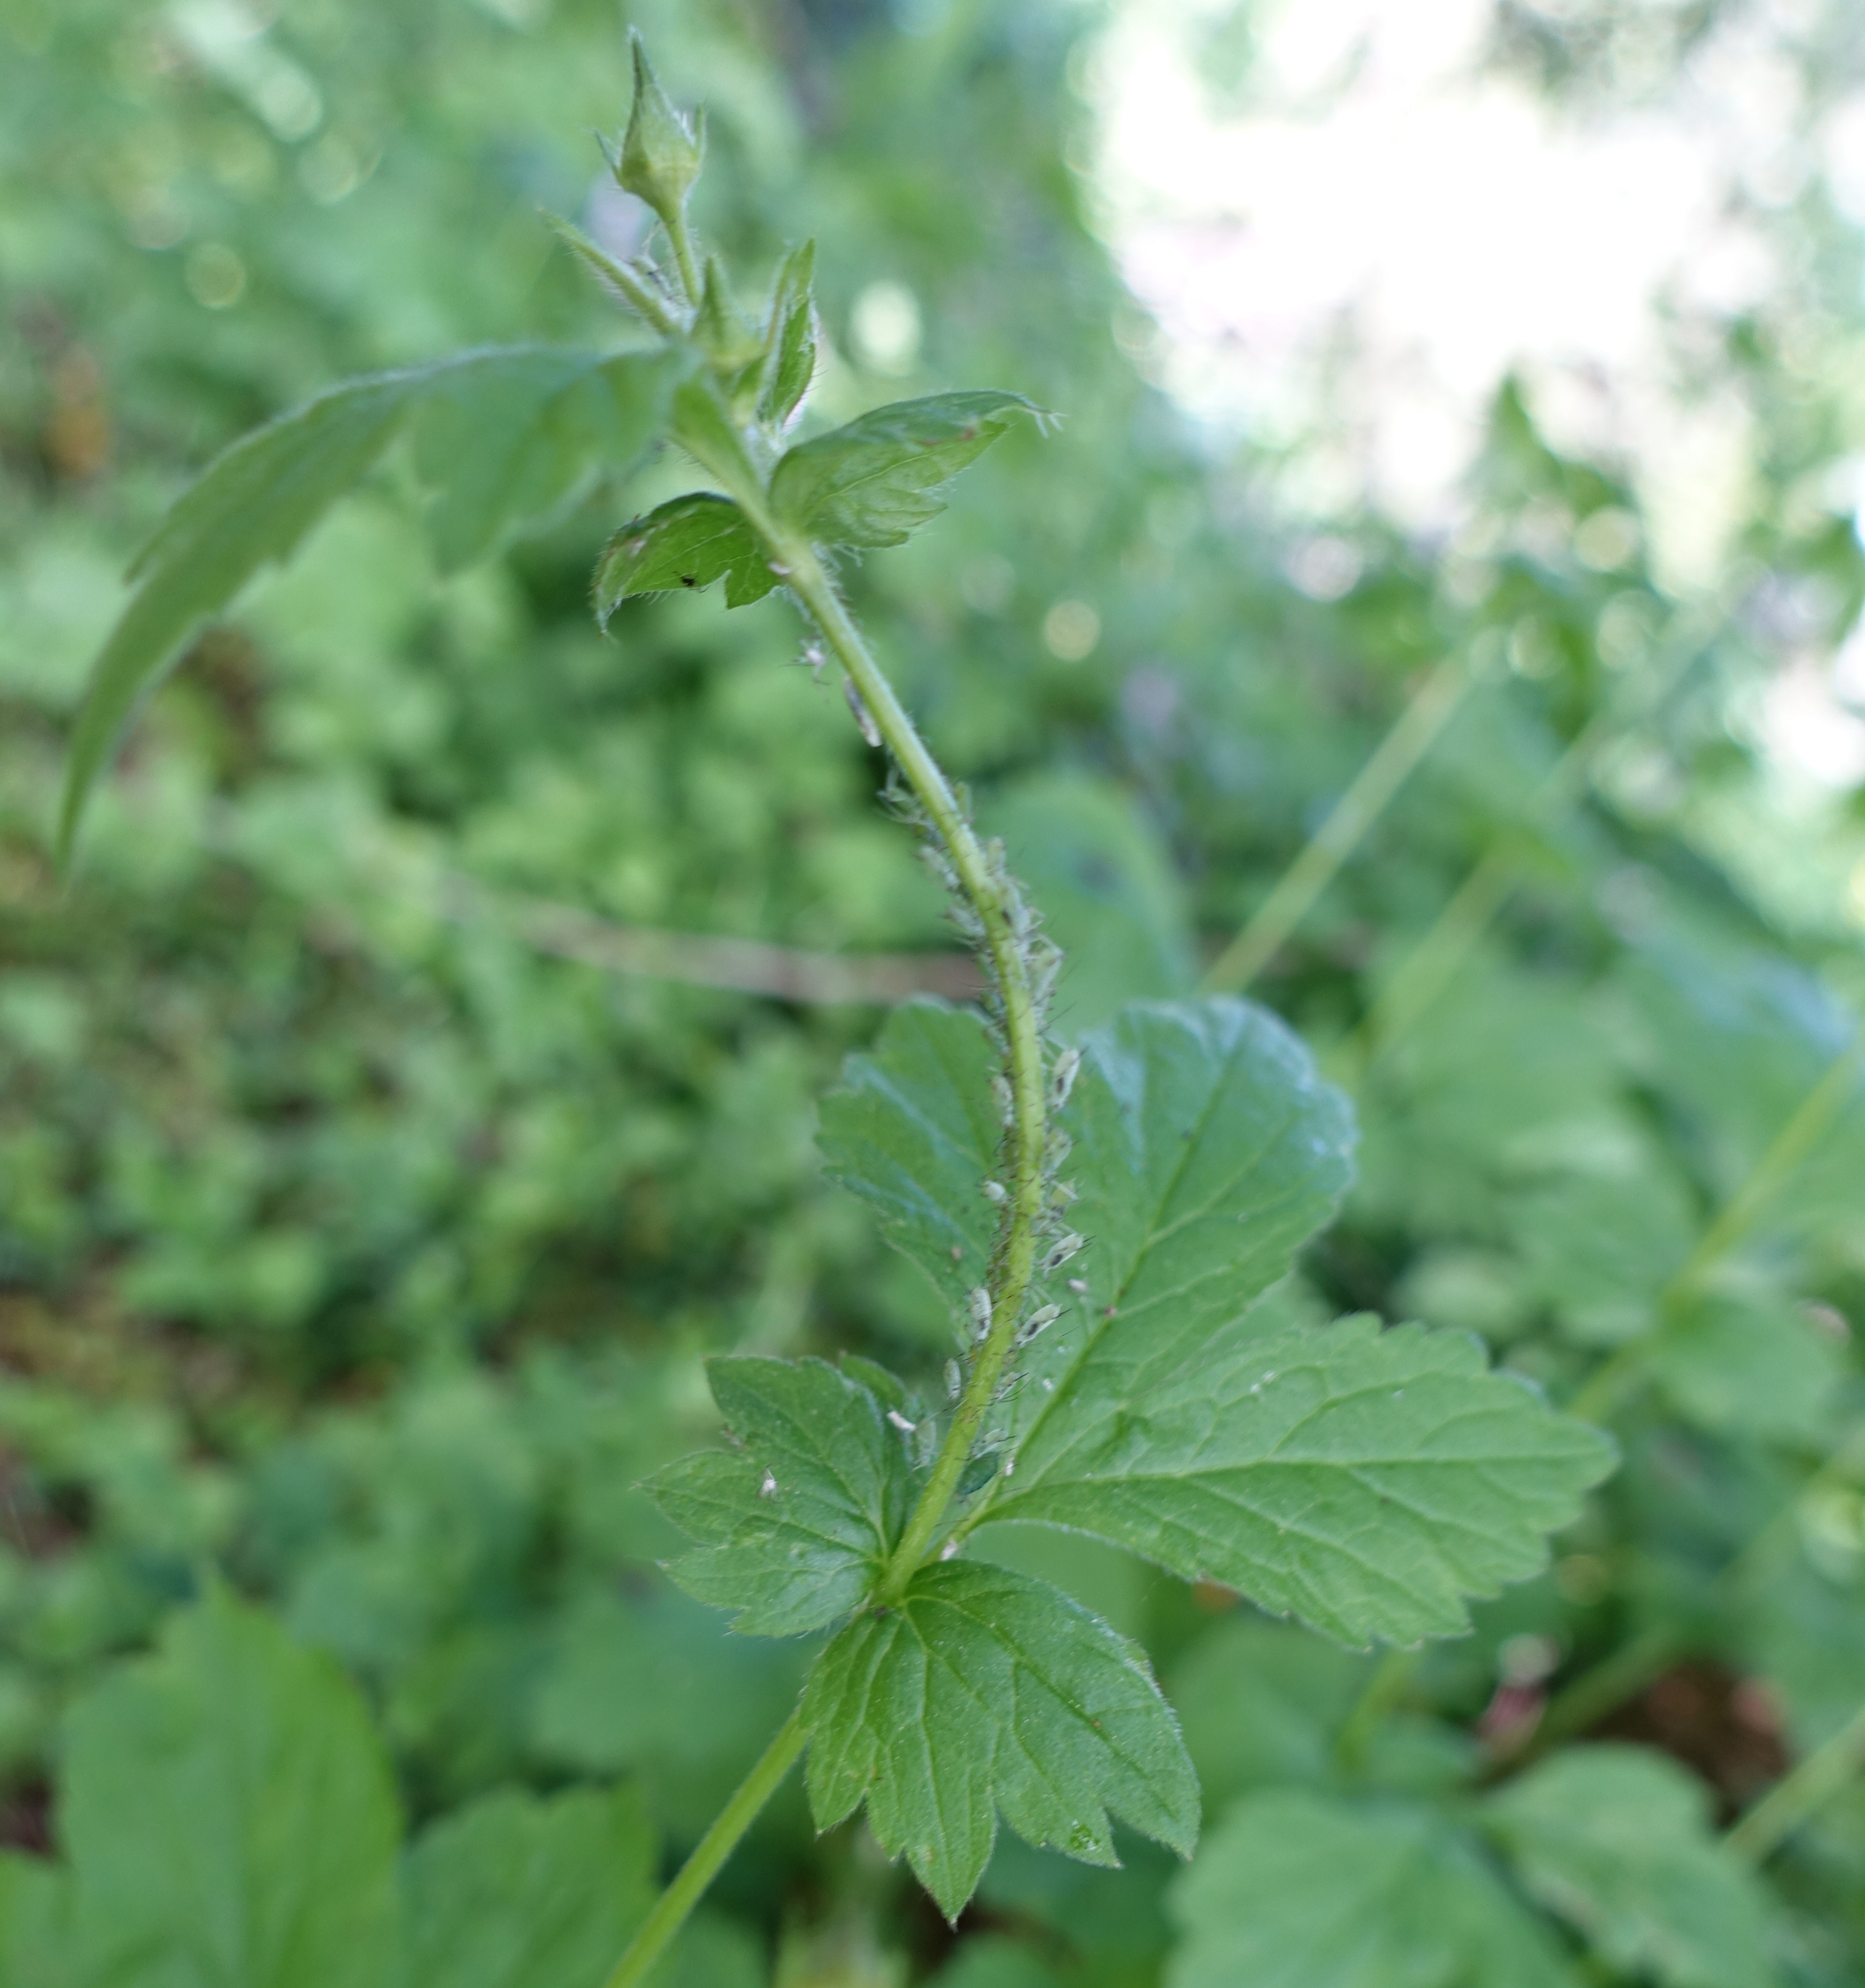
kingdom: Animalia
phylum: Arthropoda
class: Insecta
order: Hemiptera
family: Aphididae
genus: Macrosiphum
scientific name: Macrosiphum gei
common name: Nellikerodbladlus
